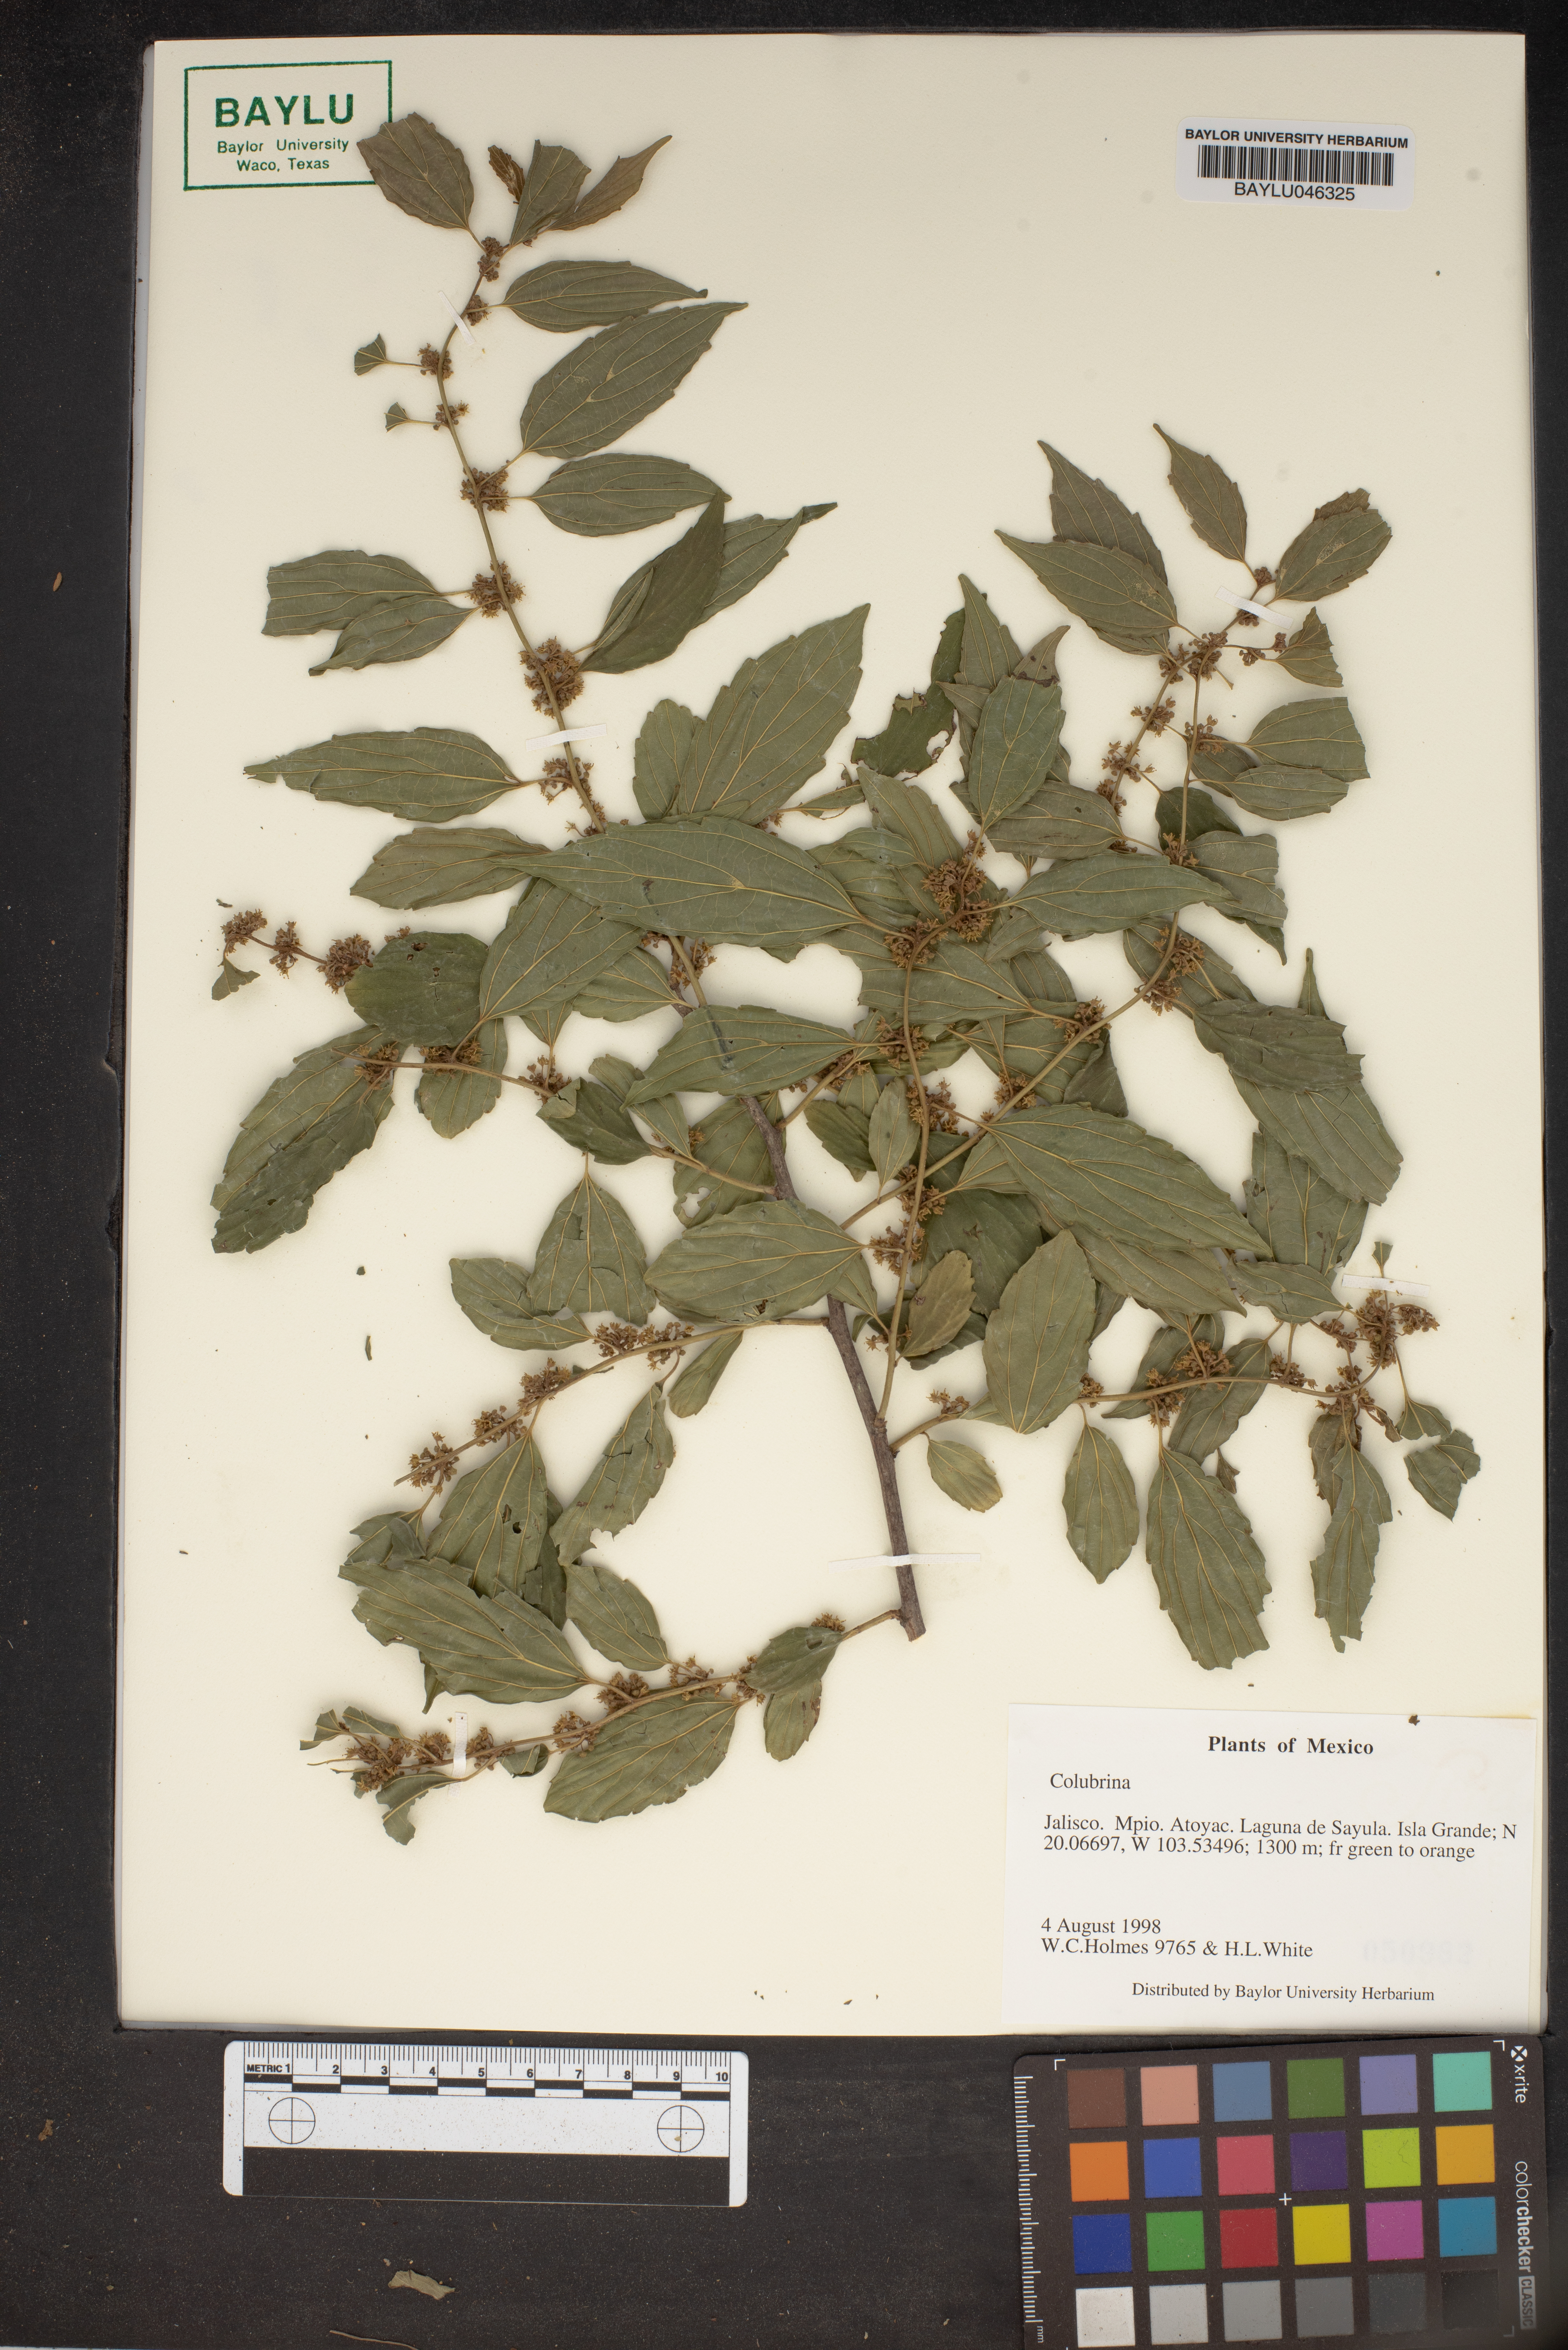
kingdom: Plantae
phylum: Tracheophyta
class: Magnoliopsida
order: Rosales
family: Rhamnaceae
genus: Colubrina
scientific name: Colubrina
